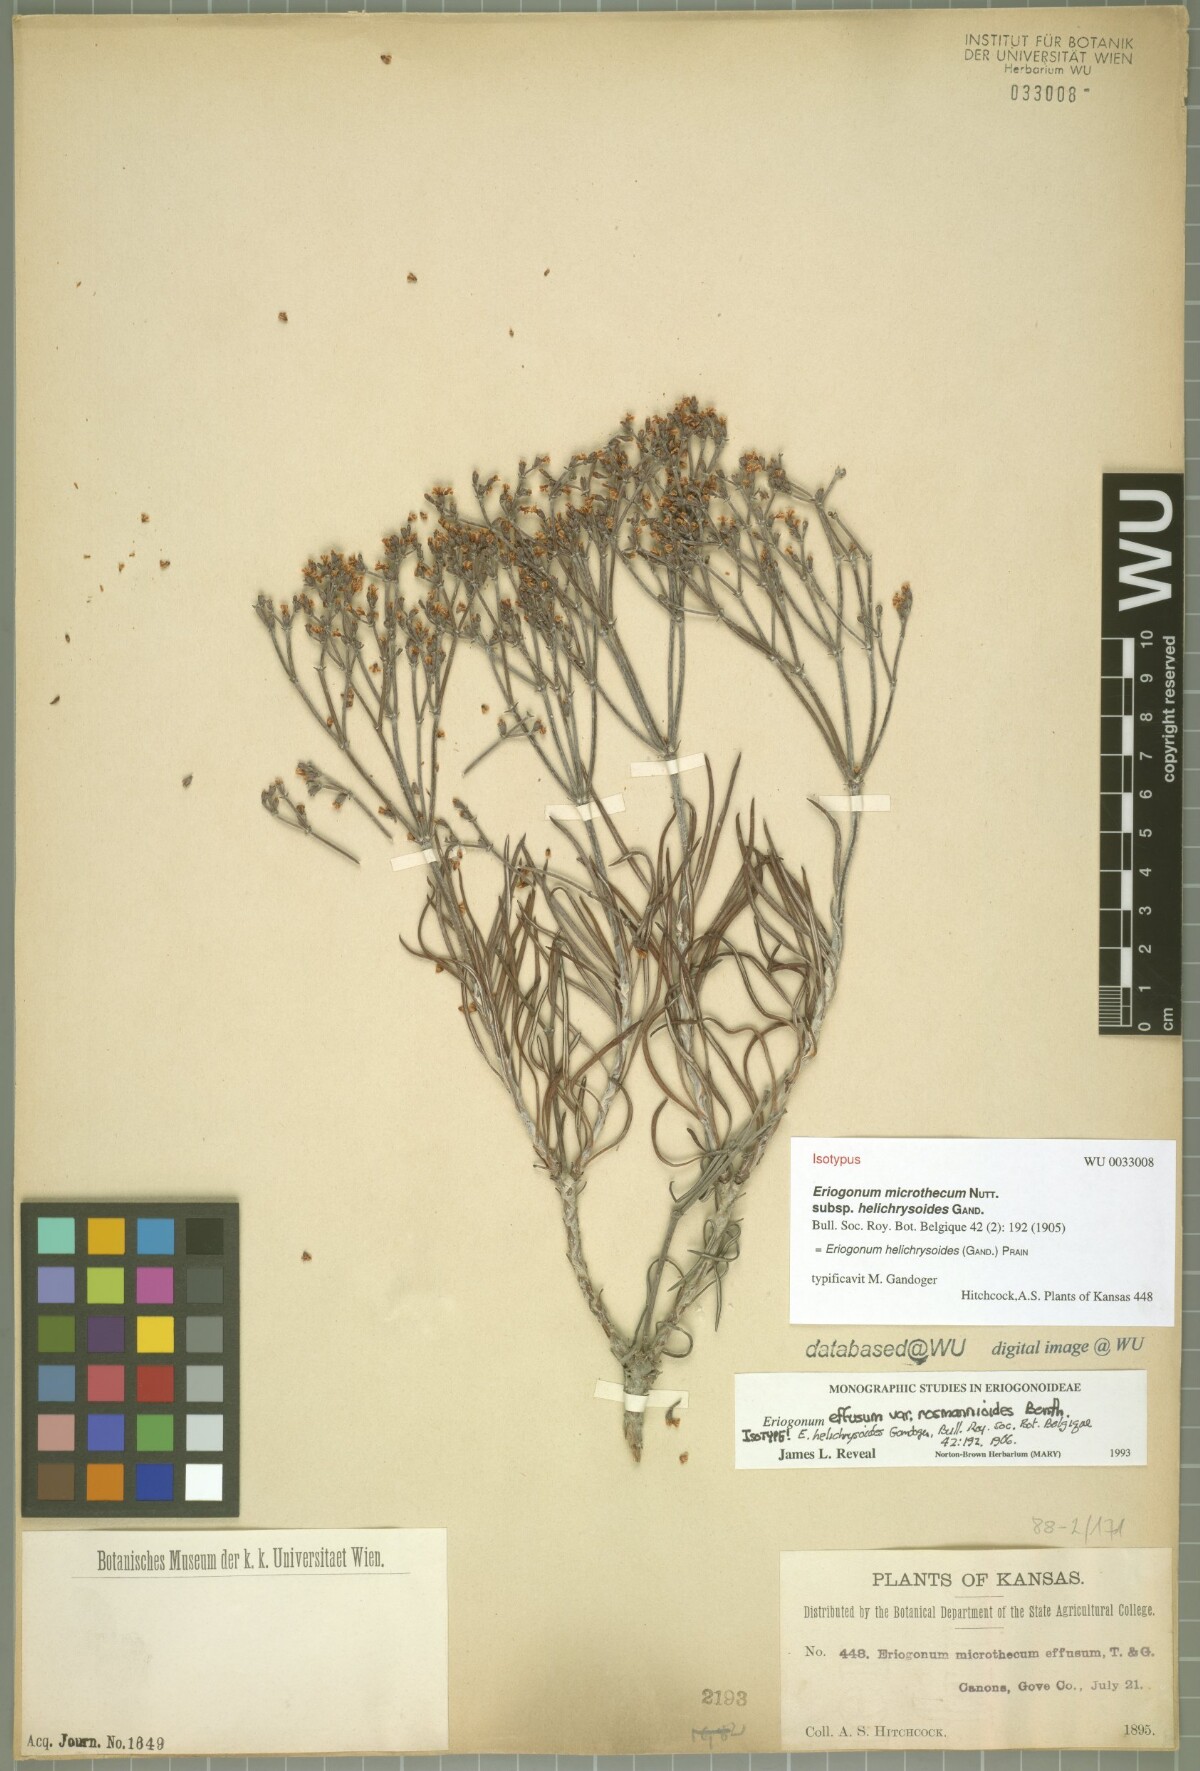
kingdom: Plantae
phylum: Tracheophyta
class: Magnoliopsida
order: Caryophyllales
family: Polygonaceae
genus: Eriogonum
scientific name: Eriogonum helichrysoides
